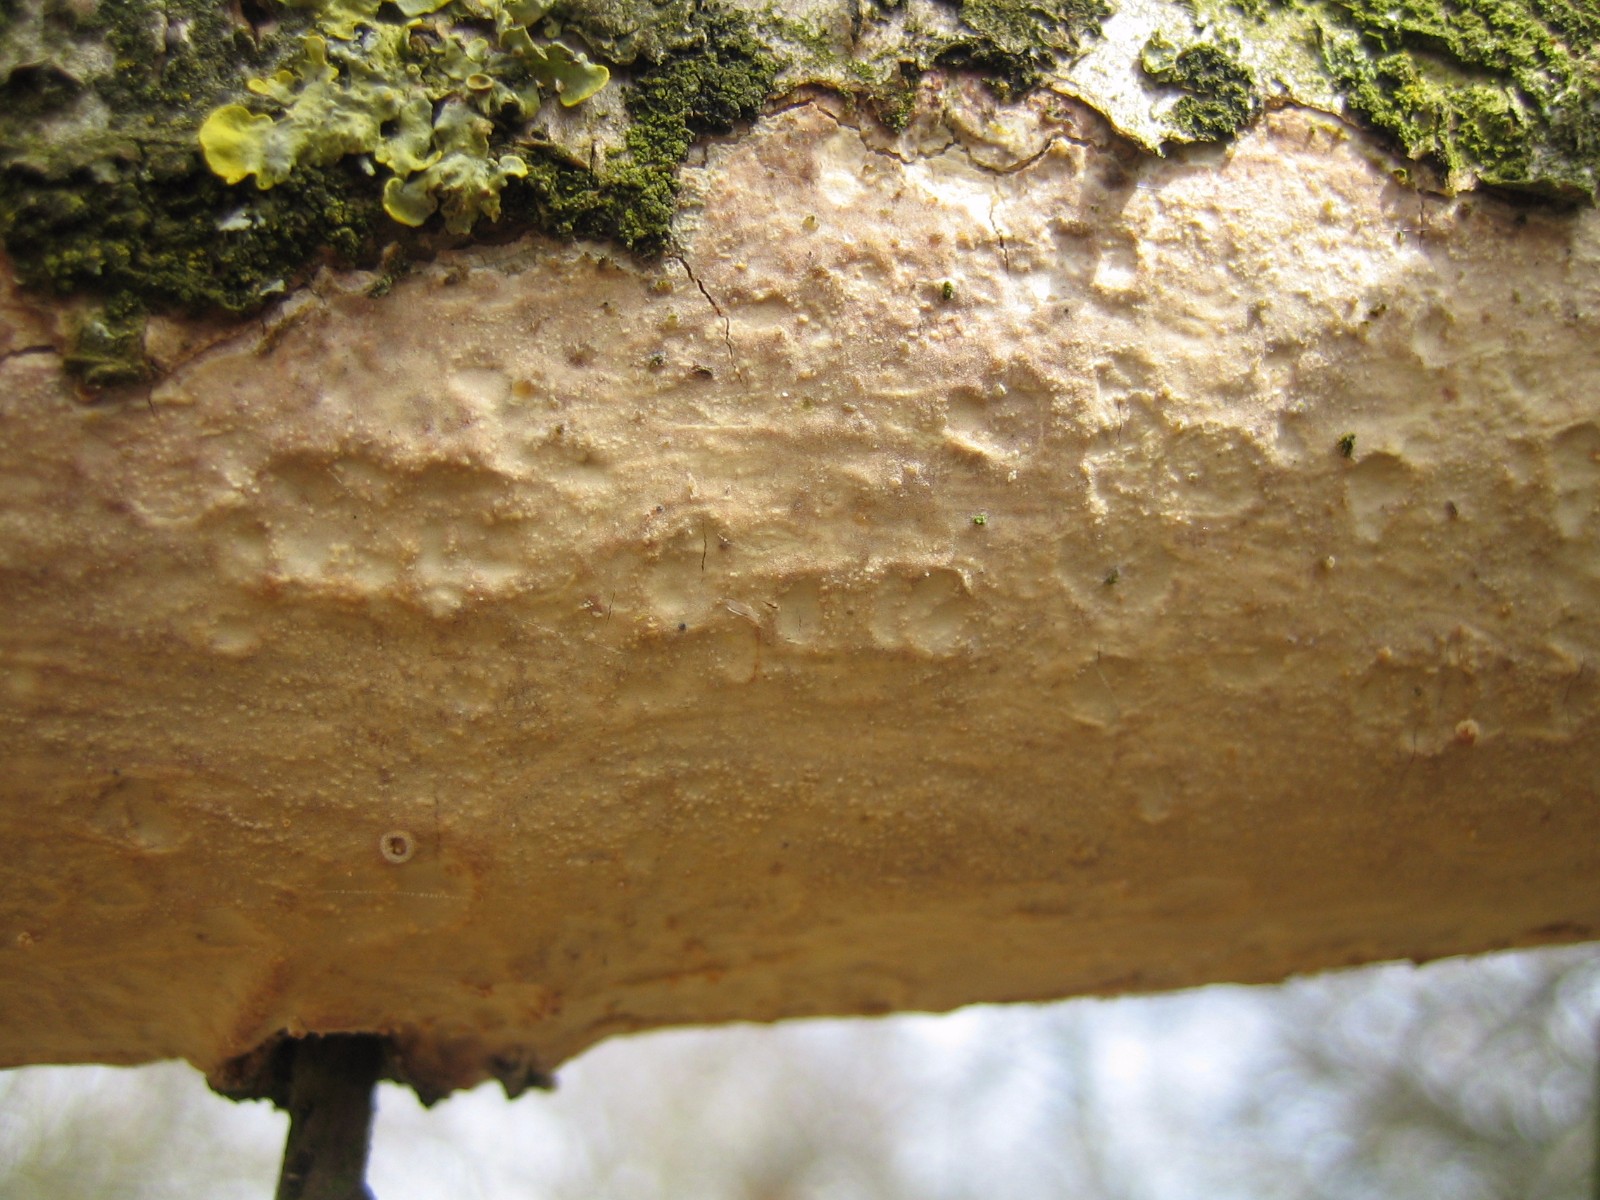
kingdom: Fungi
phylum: Basidiomycota
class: Agaricomycetes
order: Corticiales
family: Vuilleminiaceae
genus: Vuilleminia
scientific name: Vuilleminia comedens
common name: almindelig barksprænger
